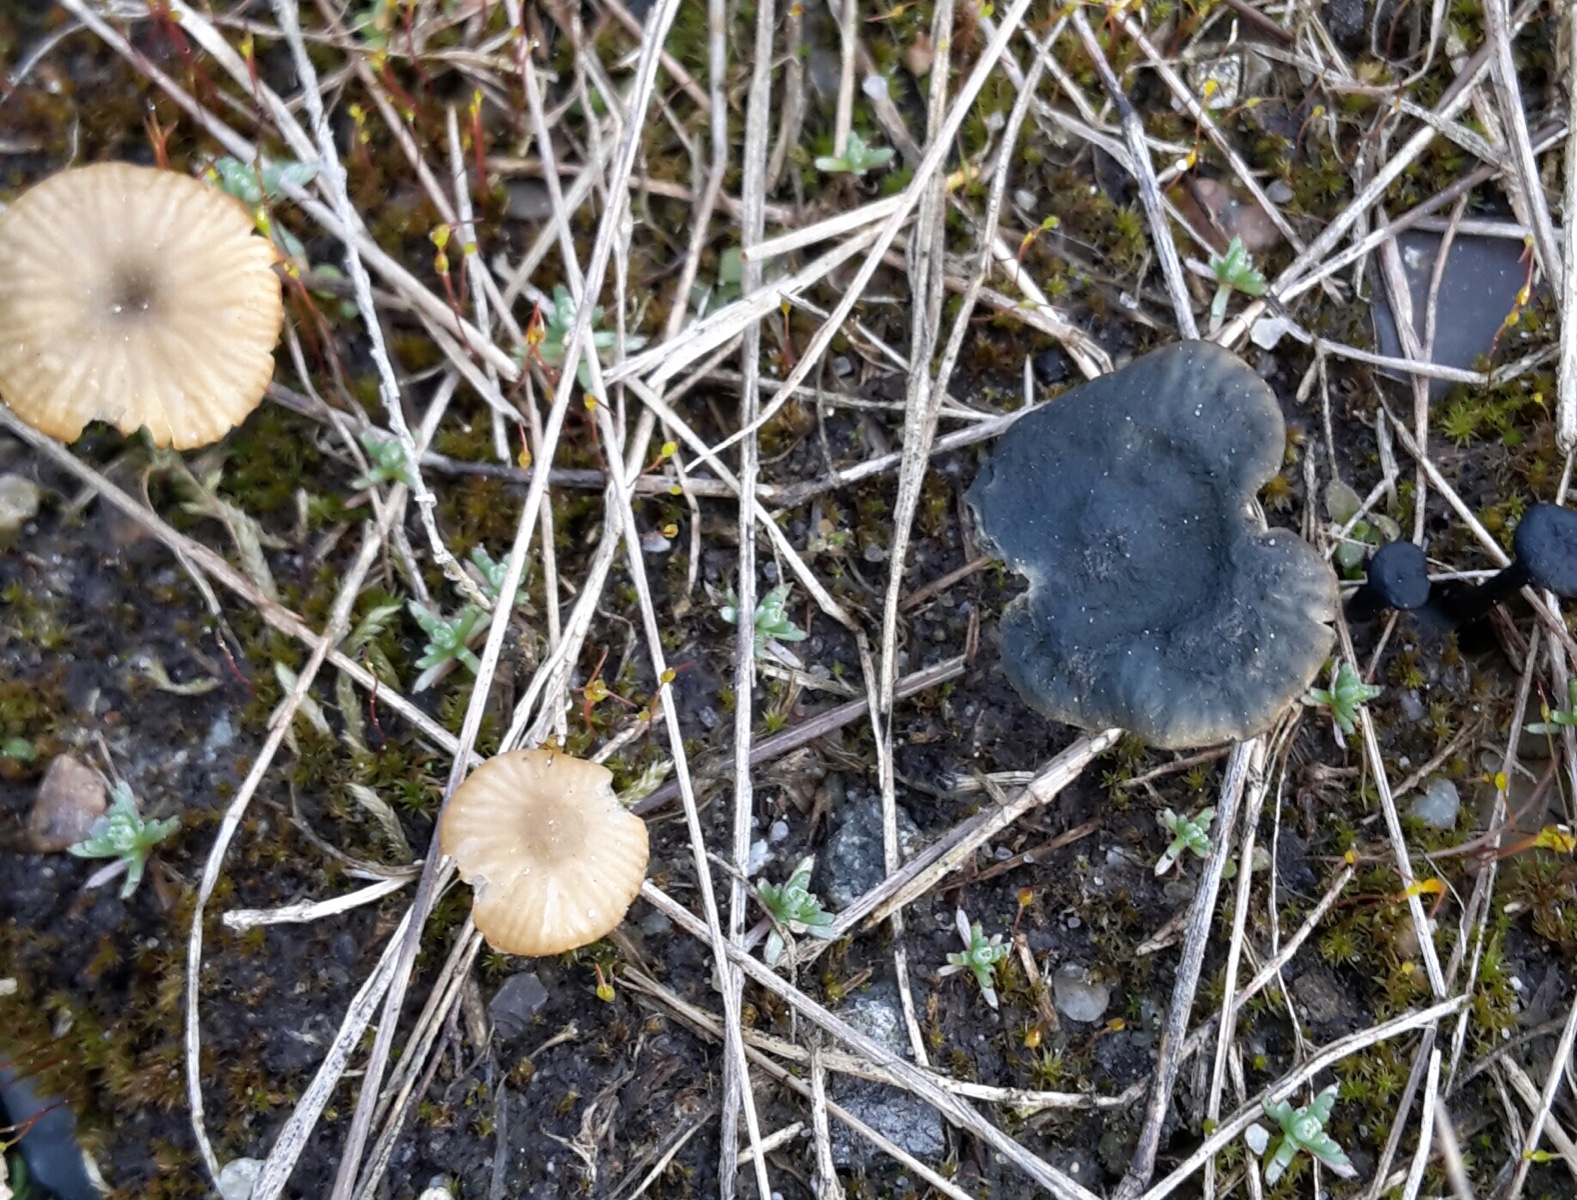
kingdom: Fungi
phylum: Basidiomycota
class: Agaricomycetes
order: Agaricales
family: Hygrophoraceae
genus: Arrhenia
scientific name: Arrhenia chlorocyanea
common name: blågrøn fontænehat
